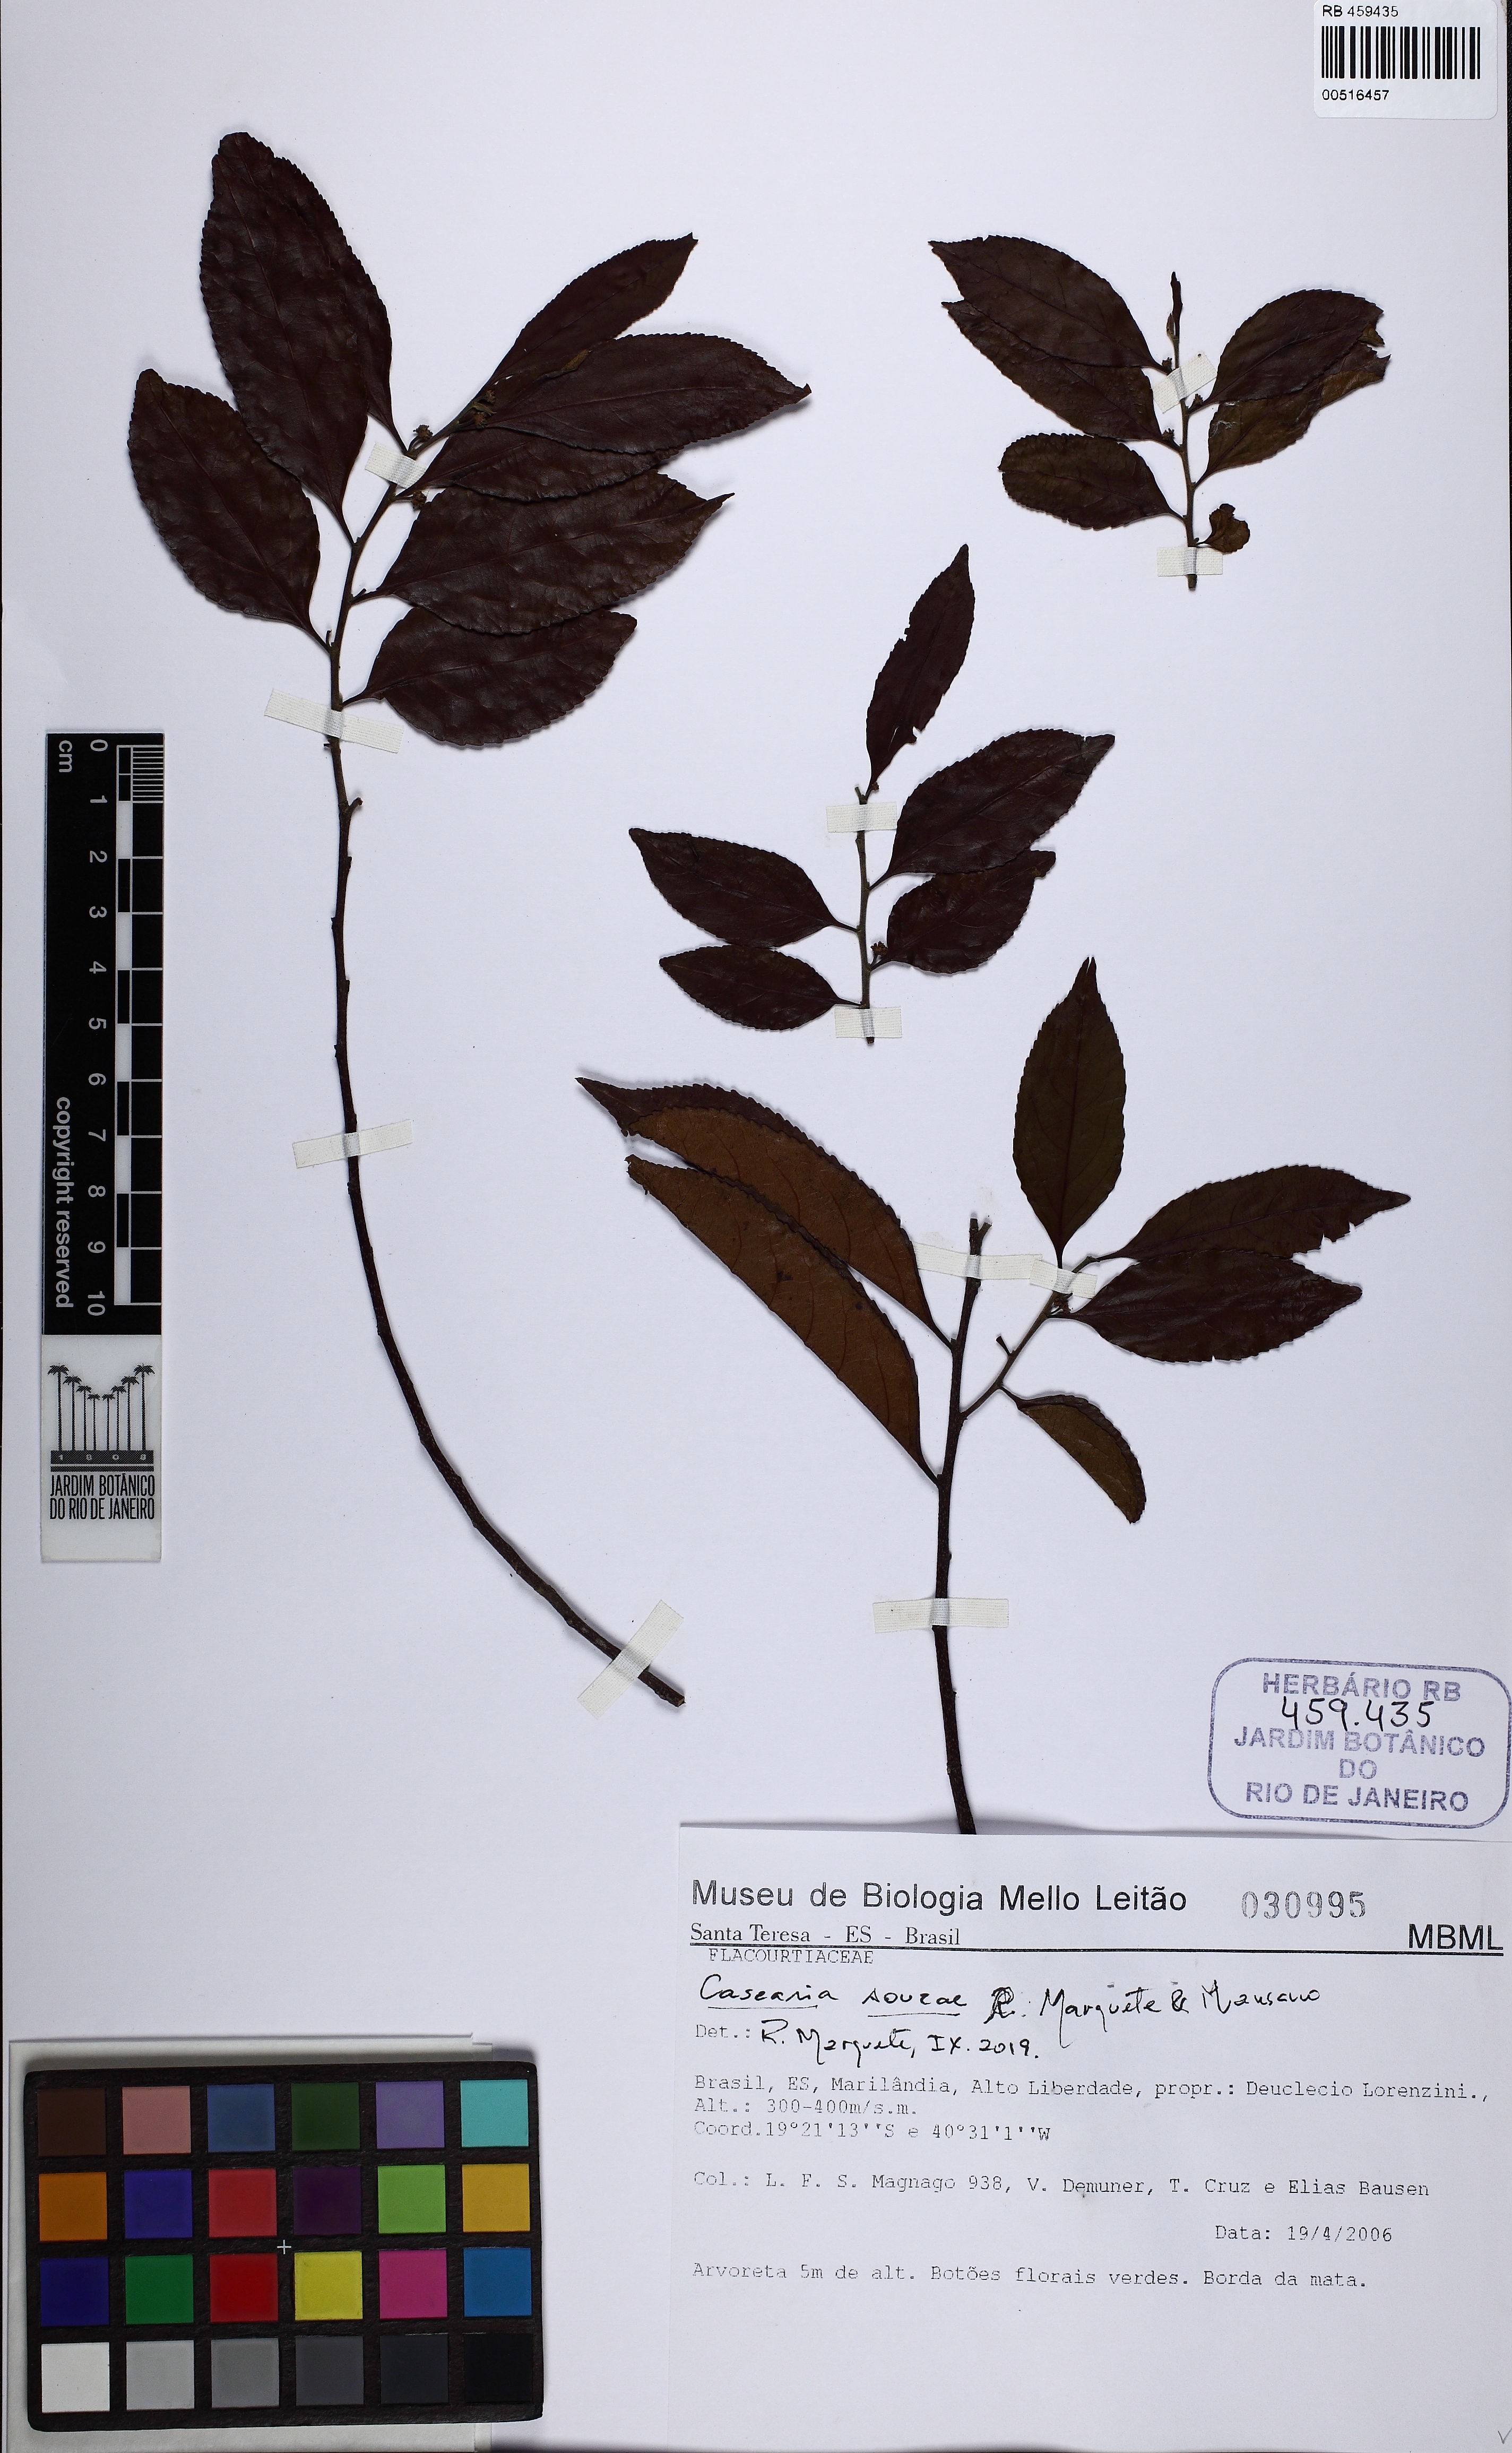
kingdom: Plantae
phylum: Tracheophyta
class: Magnoliopsida
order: Malpighiales
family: Salicaceae
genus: Casearia
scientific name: Casearia souzae
